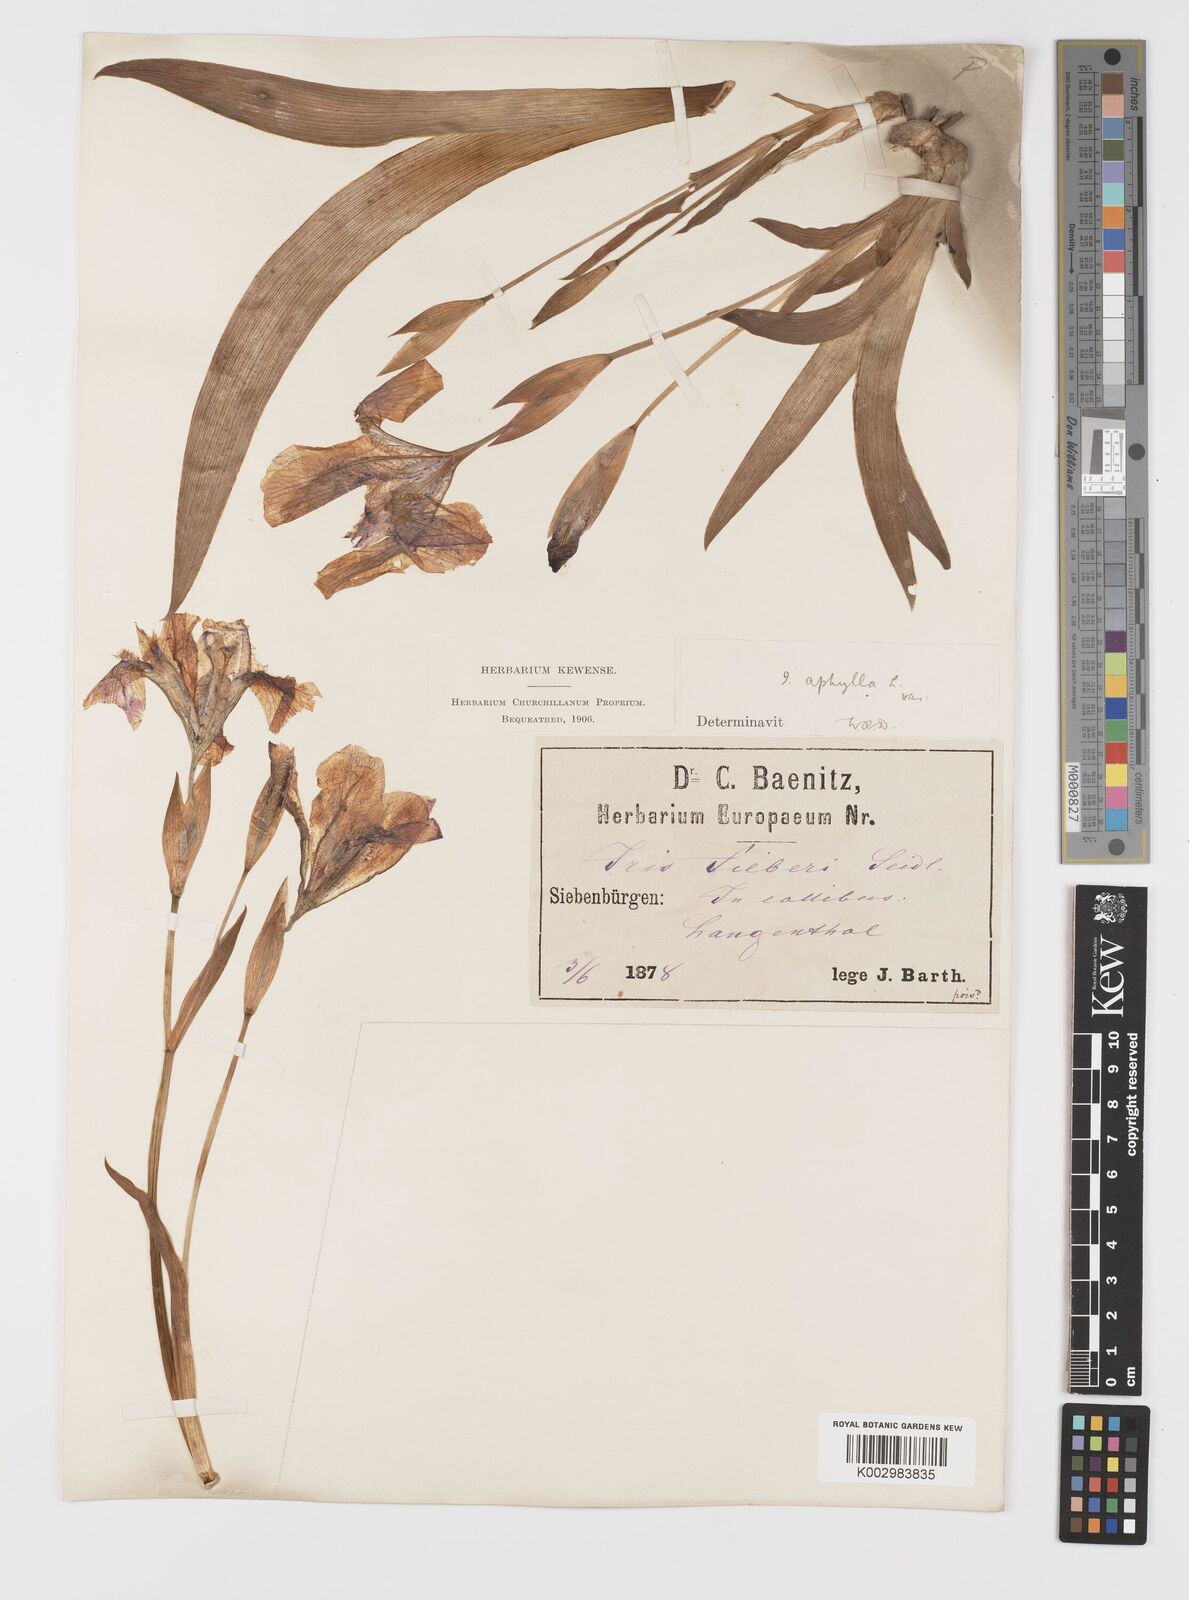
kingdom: Plantae
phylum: Tracheophyta
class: Liliopsida
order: Asparagales
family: Iridaceae
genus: Iris
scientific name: Iris aphylla
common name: Stool iris
